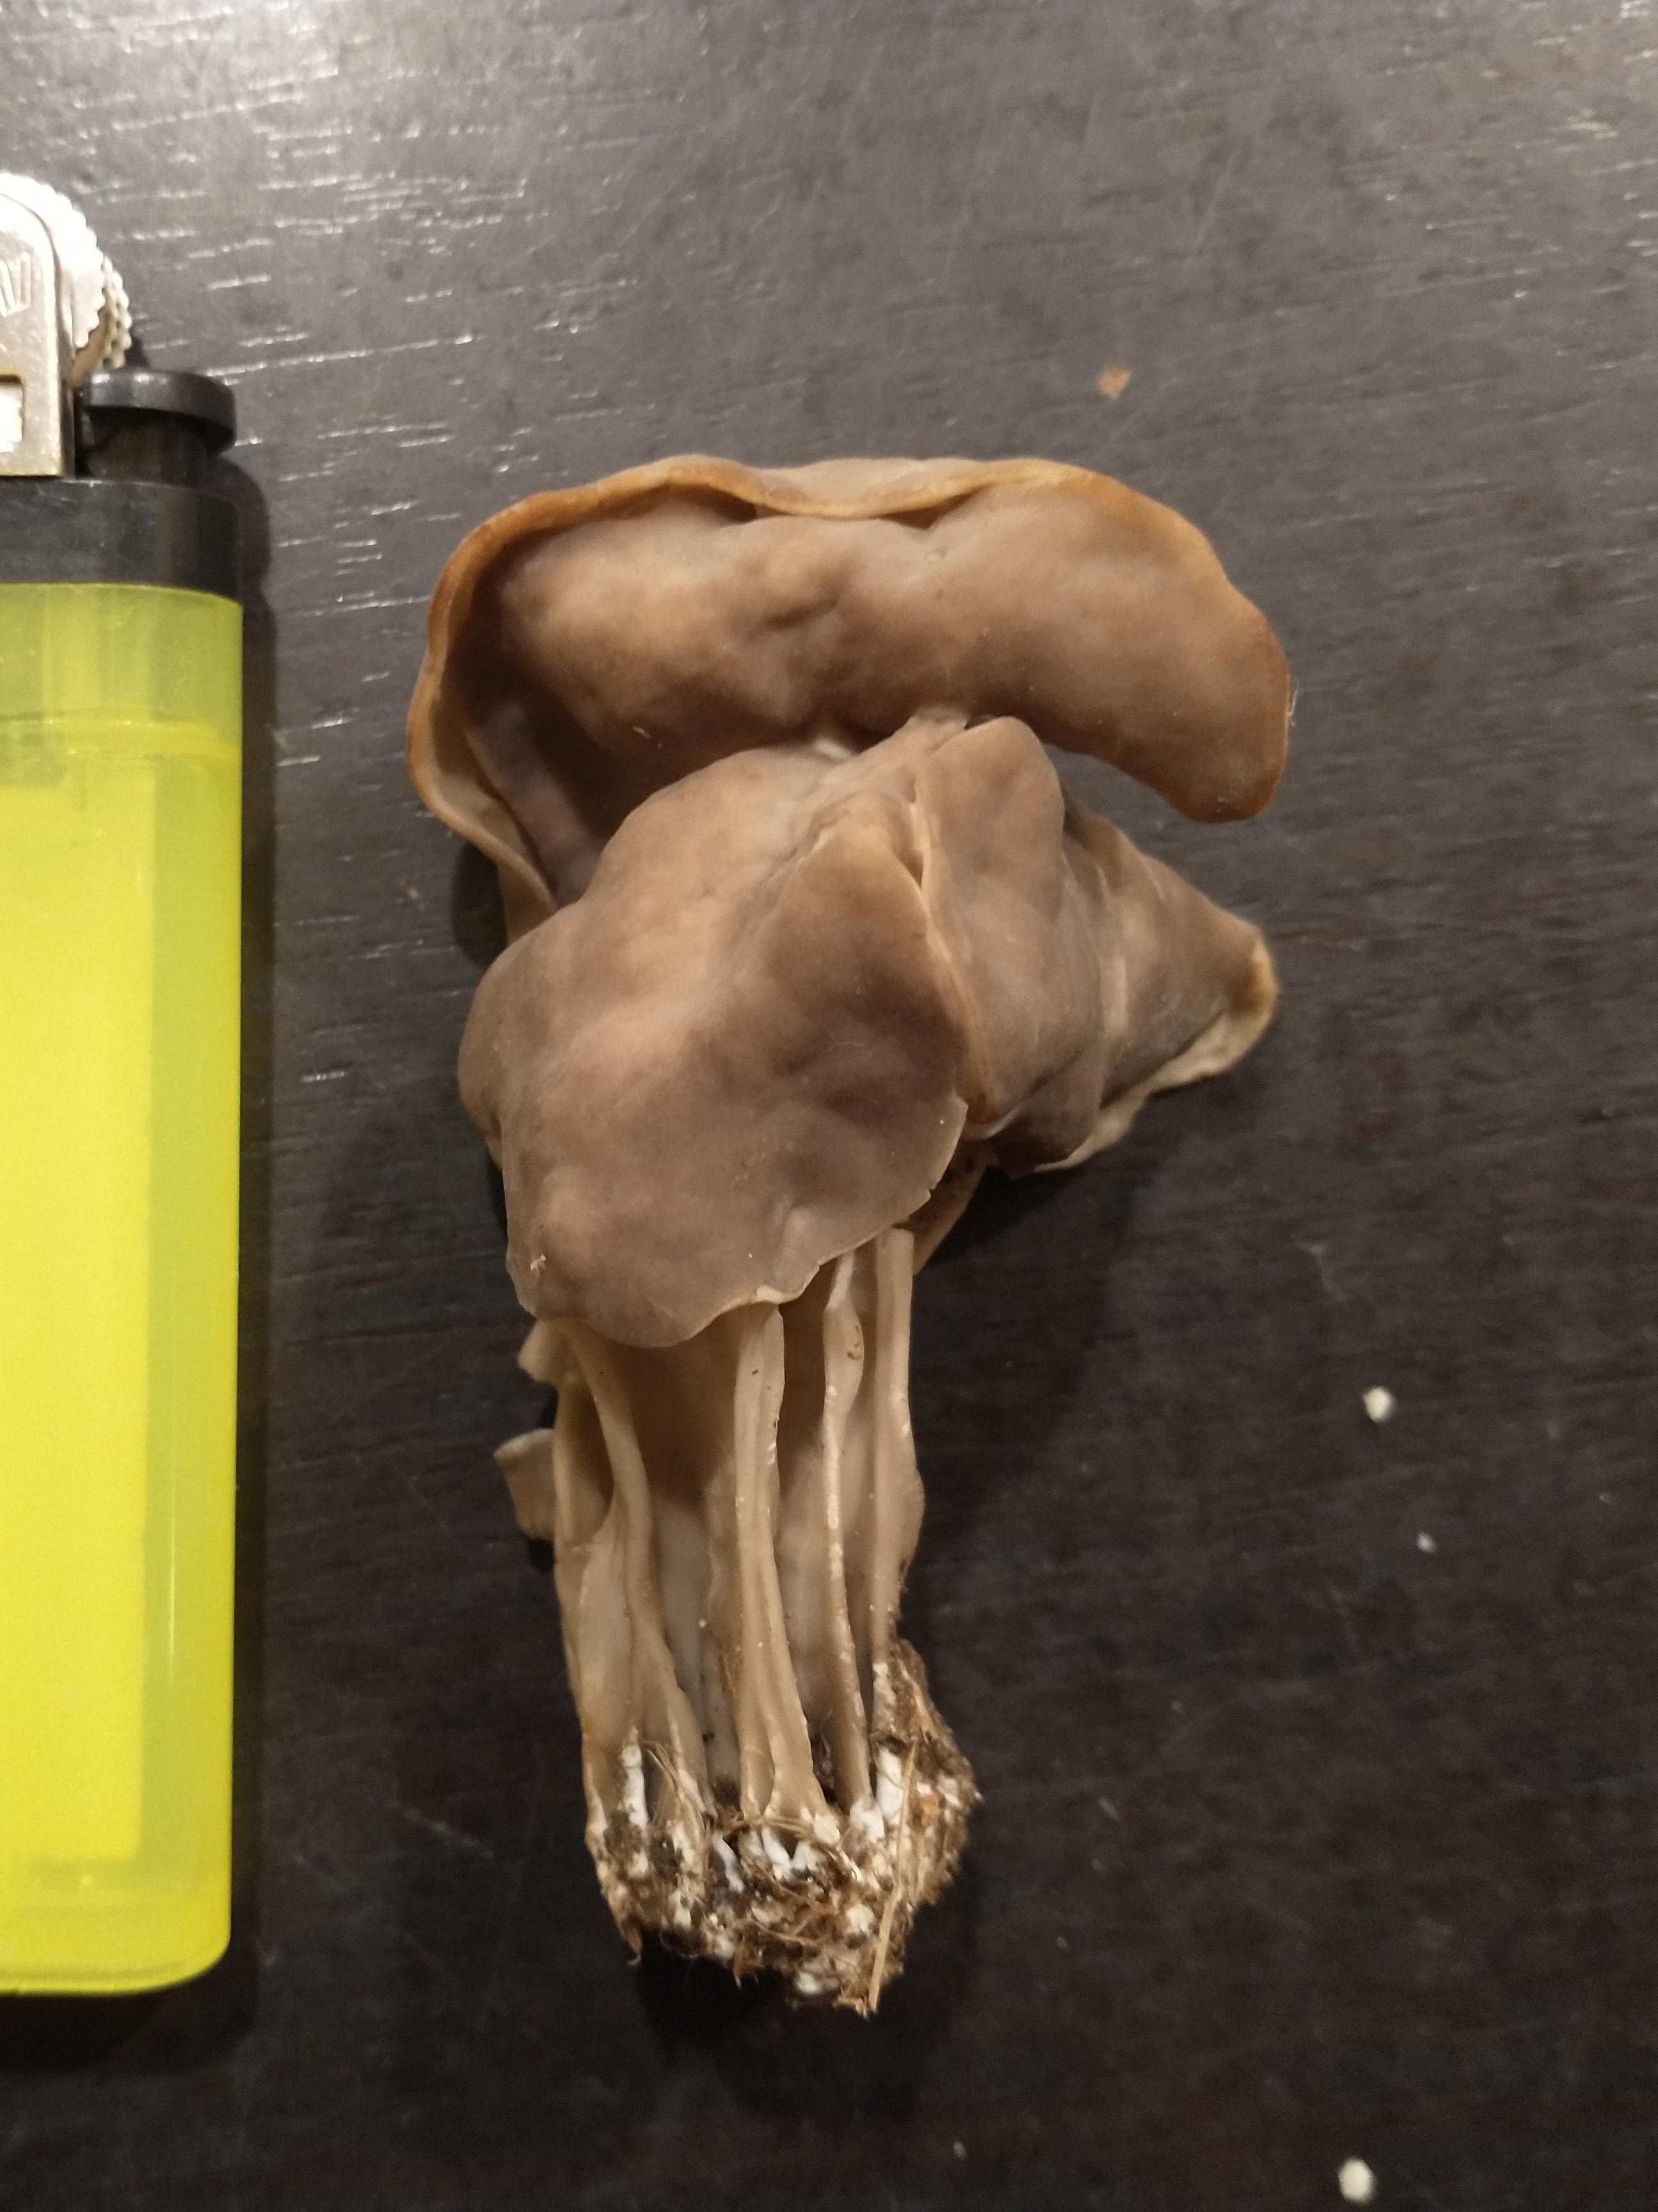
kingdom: Fungi
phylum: Ascomycota
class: Pezizomycetes
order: Pezizales
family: Helvellaceae
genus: Helvella
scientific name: Helvella lacunosa
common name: grubet foldhat
